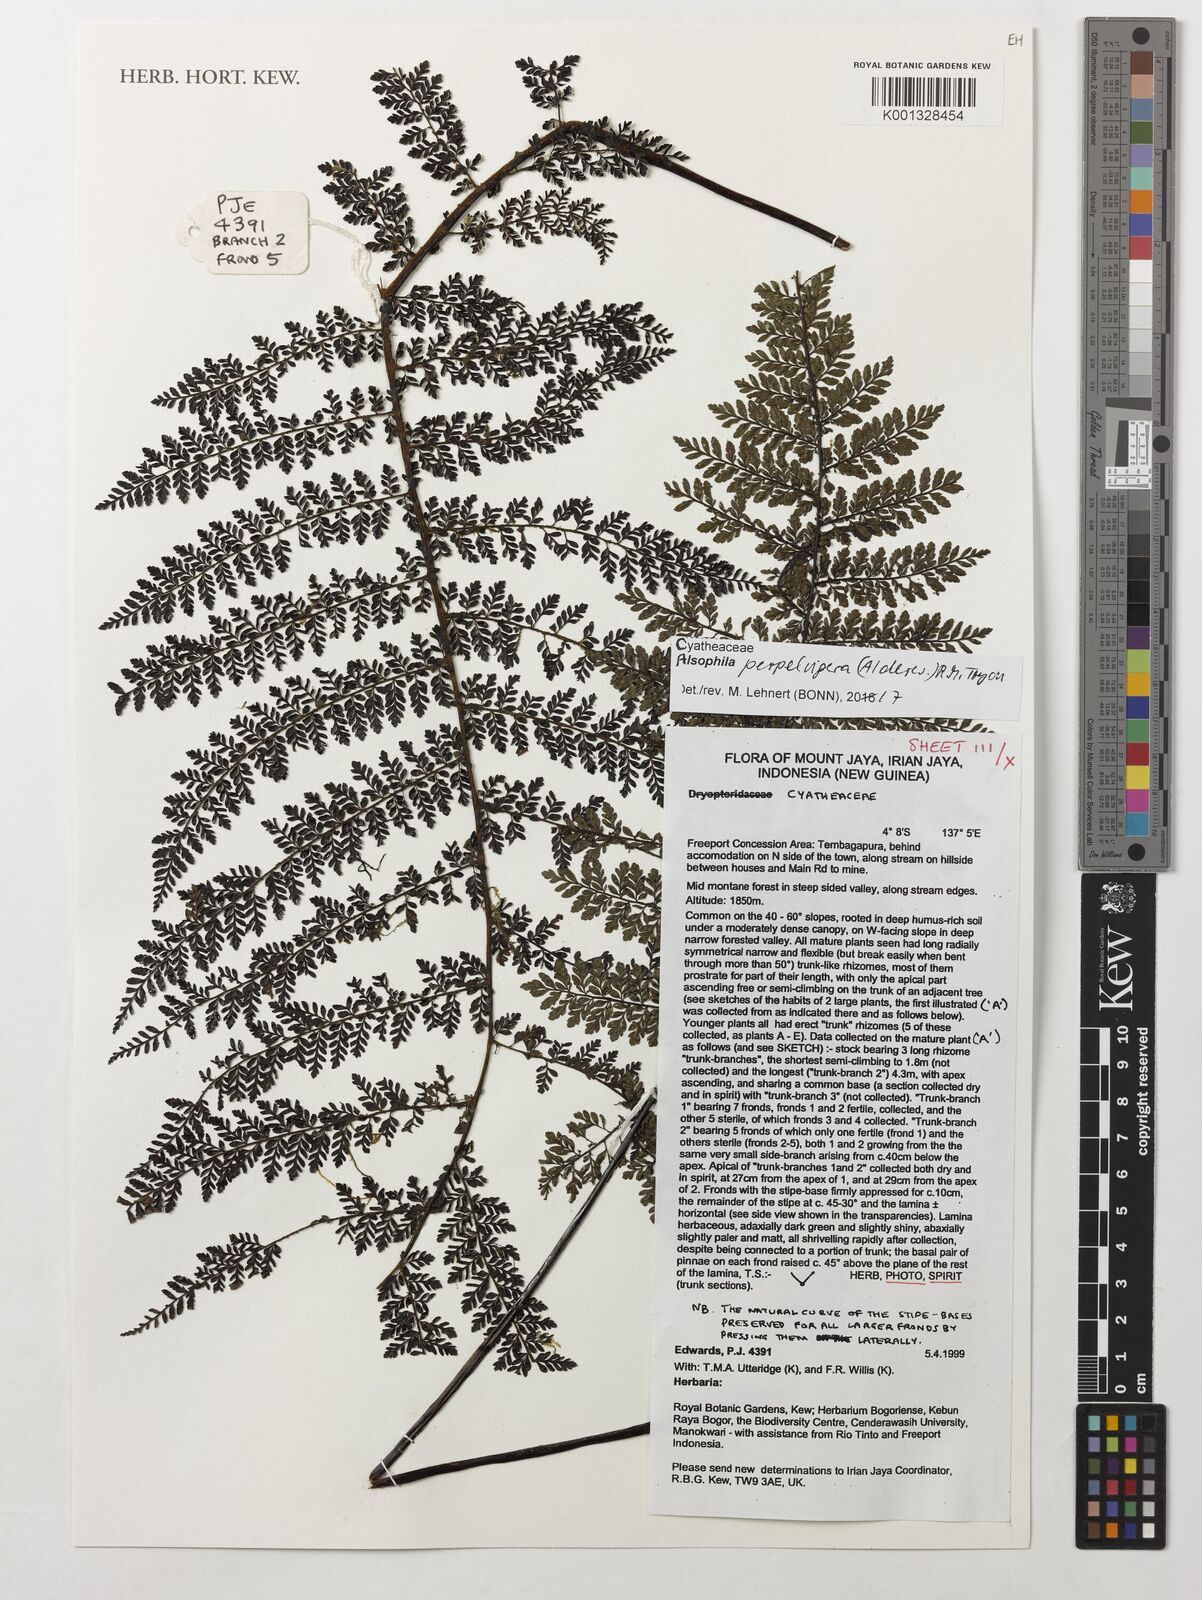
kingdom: Plantae
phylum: Tracheophyta
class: Polypodiopsida
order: Cyatheales
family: Cyatheaceae
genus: Alsophila
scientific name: Alsophila perpelvigera
